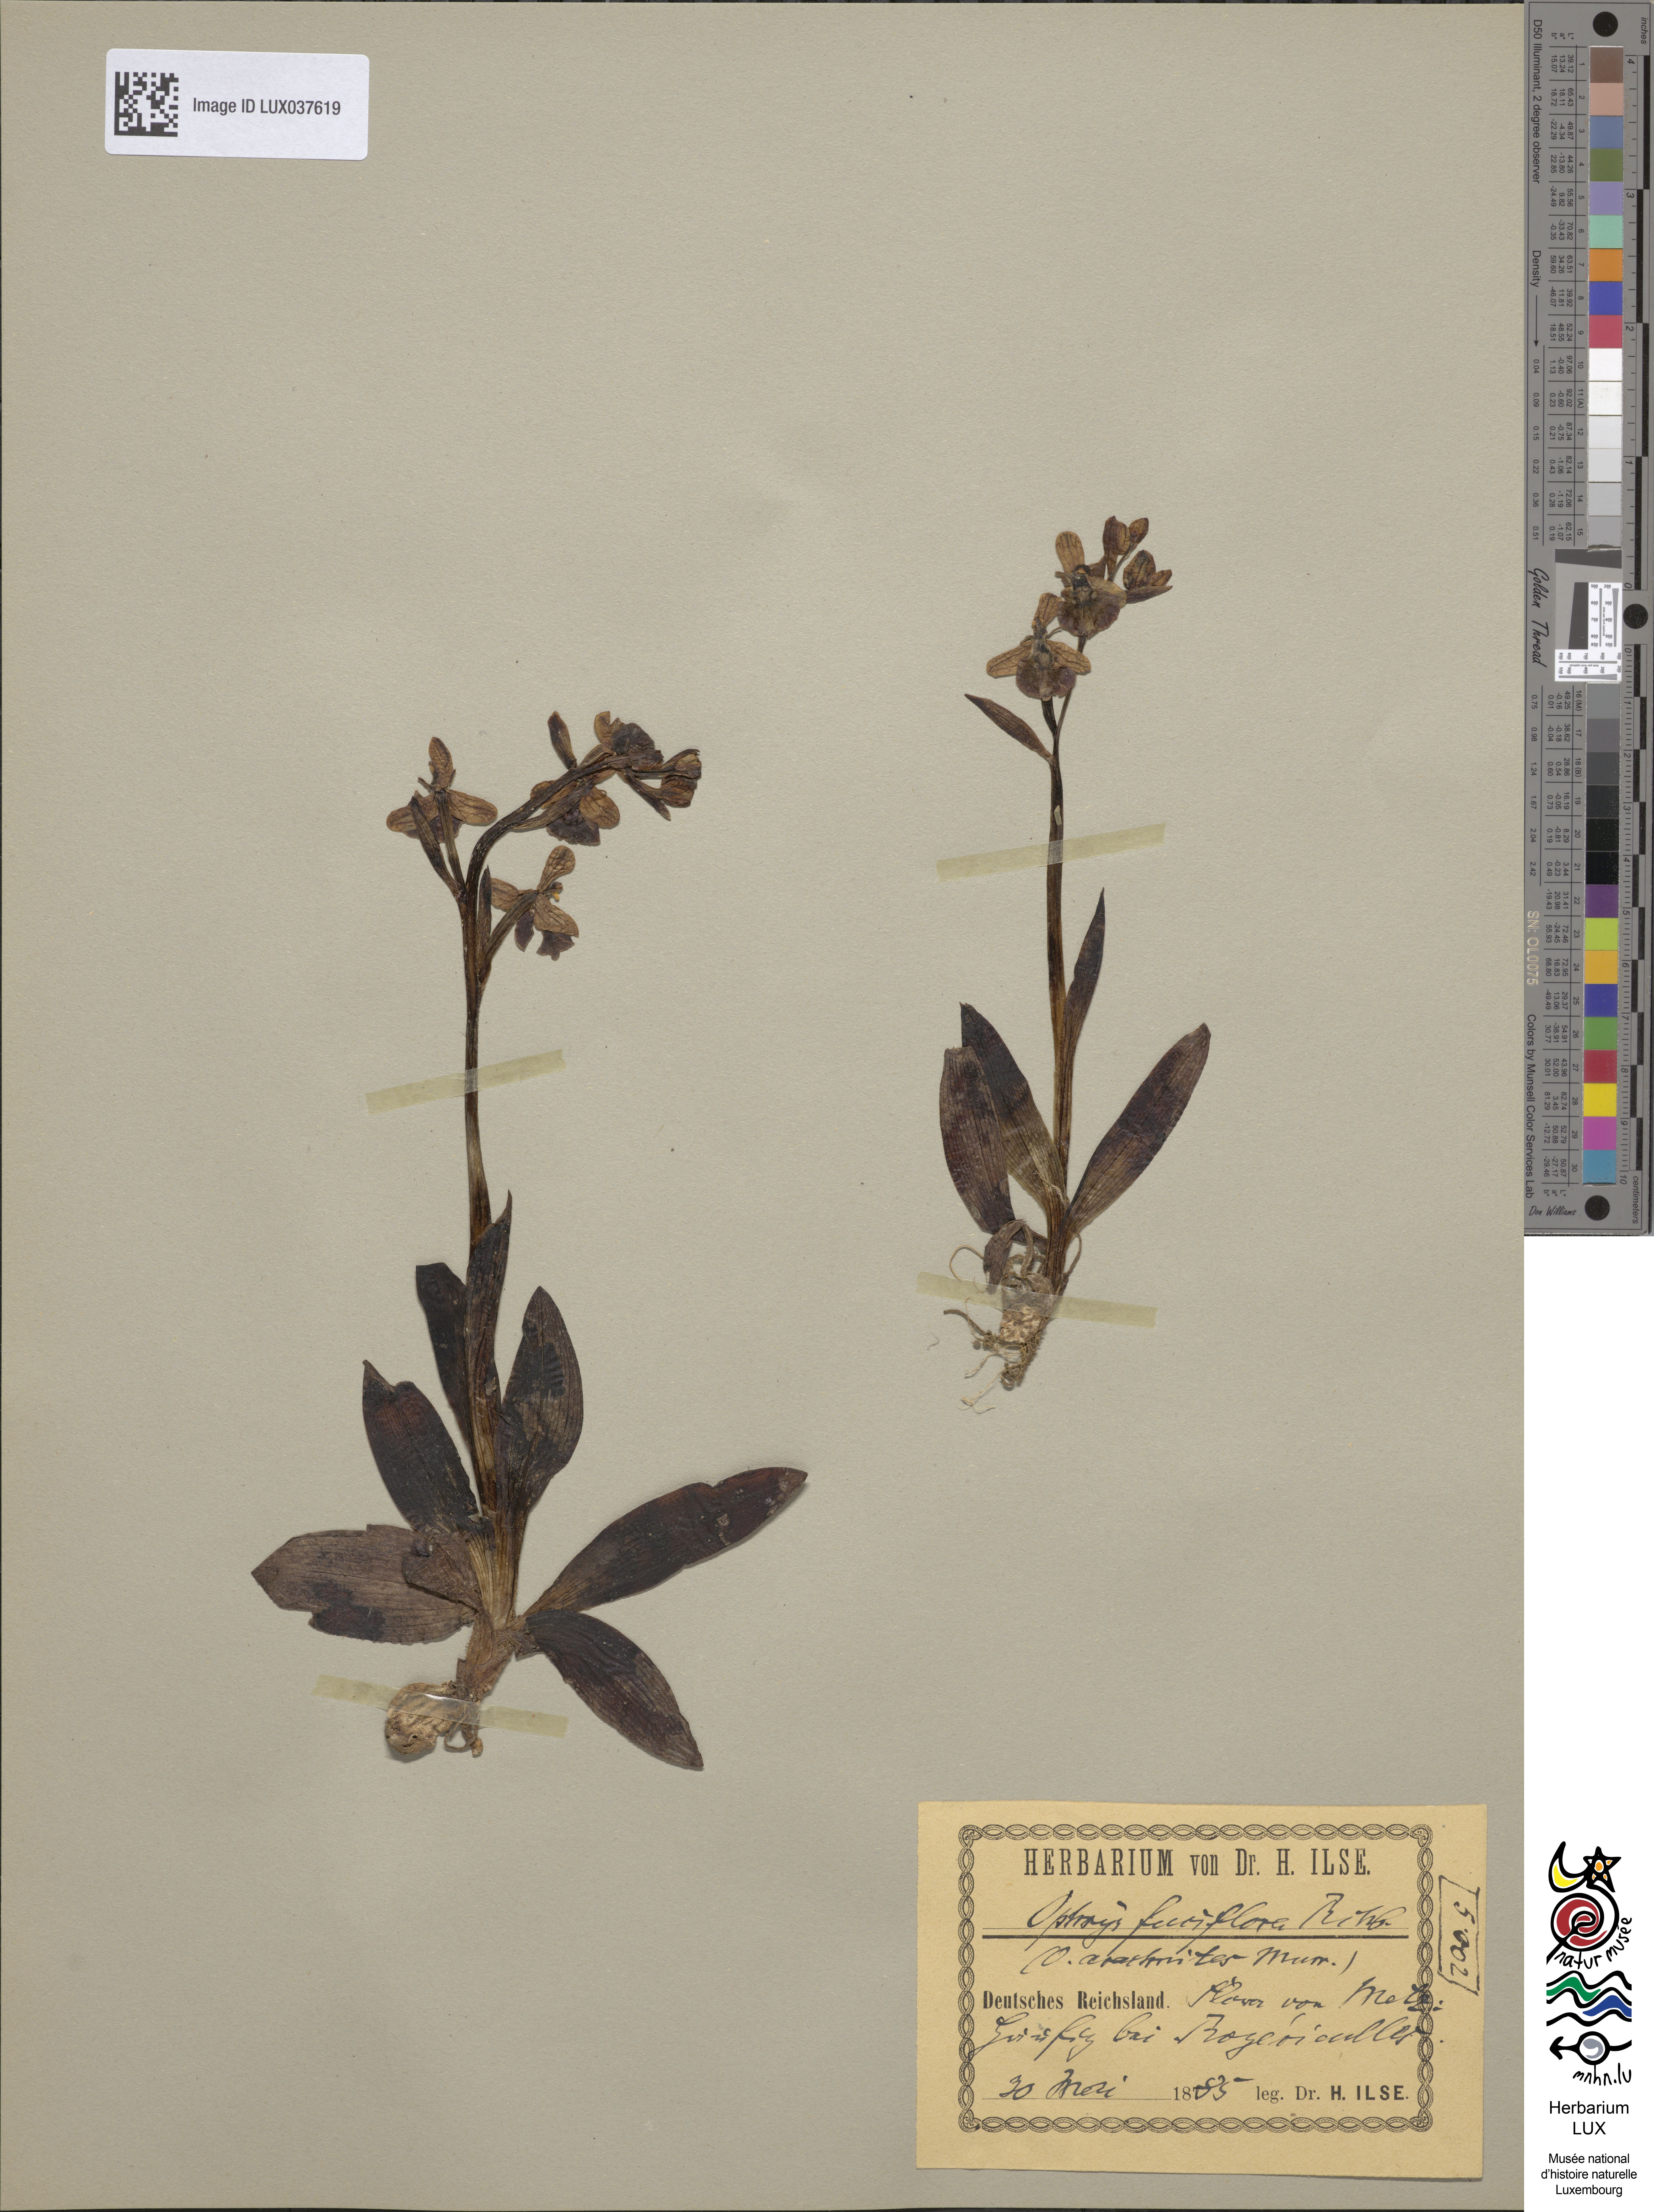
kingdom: Plantae
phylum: Tracheophyta
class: Liliopsida
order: Asparagales
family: Orchidaceae
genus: Ophrys
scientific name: Ophrys holosericea
